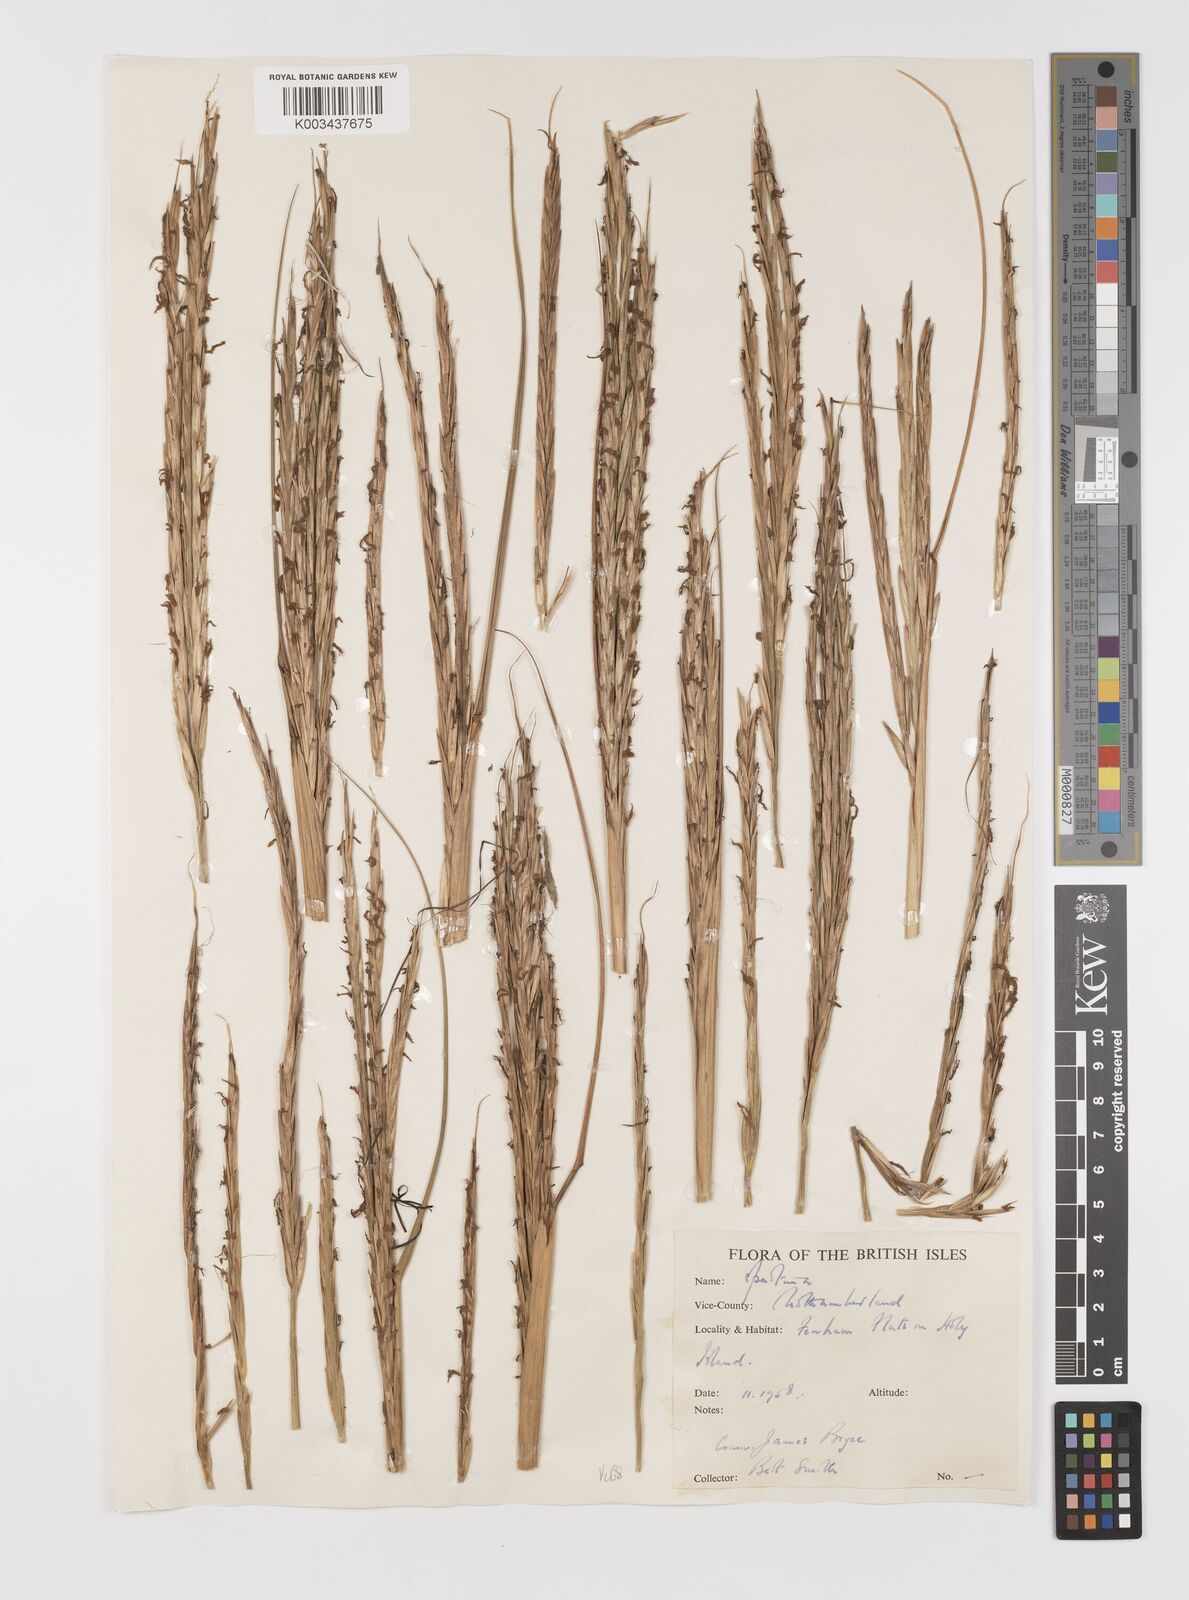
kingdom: Plantae
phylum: Tracheophyta
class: Liliopsida
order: Poales
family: Poaceae
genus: Sporobolus
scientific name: Sporobolus anglicus
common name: English cordgrass
